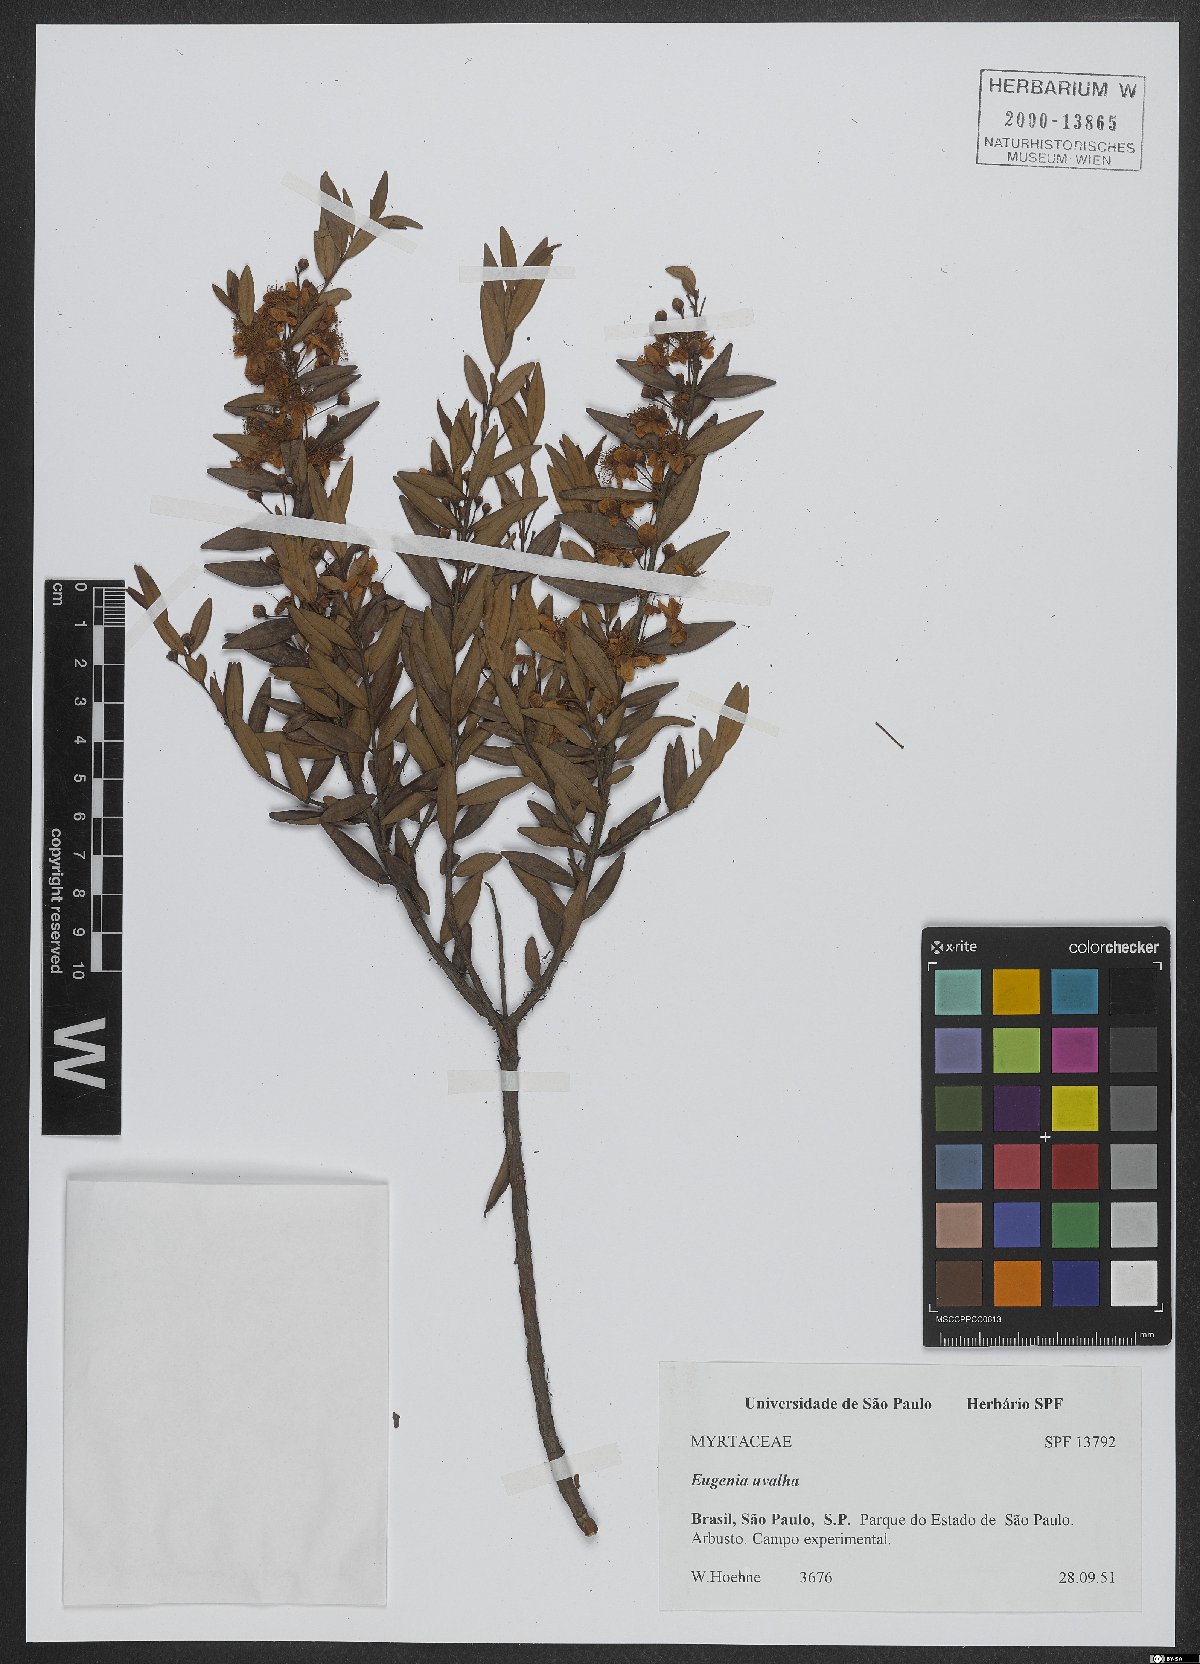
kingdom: Plantae
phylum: Tracheophyta
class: Magnoliopsida
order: Myrtales
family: Myrtaceae
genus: Eugenia
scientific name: Eugenia pyriformis
